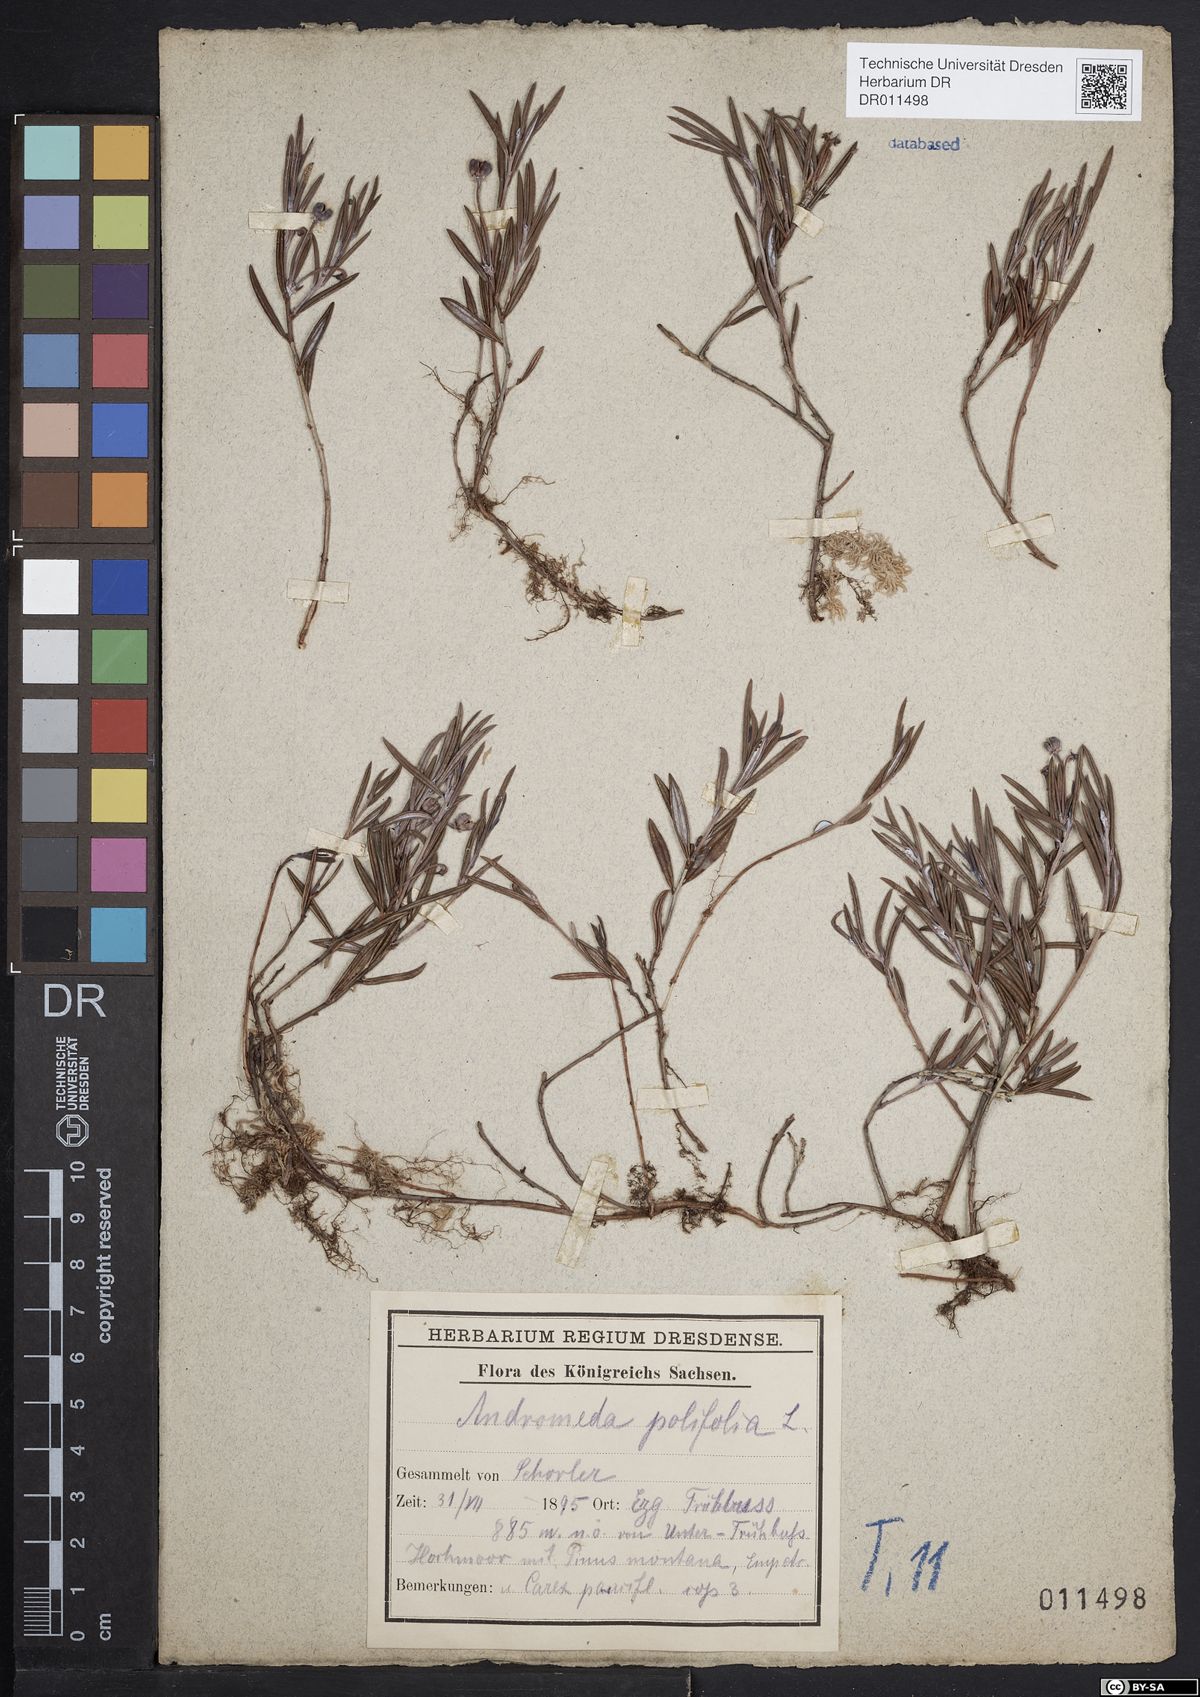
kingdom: Plantae
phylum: Tracheophyta
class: Magnoliopsida
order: Ericales
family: Ericaceae
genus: Andromeda
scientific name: Andromeda polifolia
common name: Bog-rosemary
